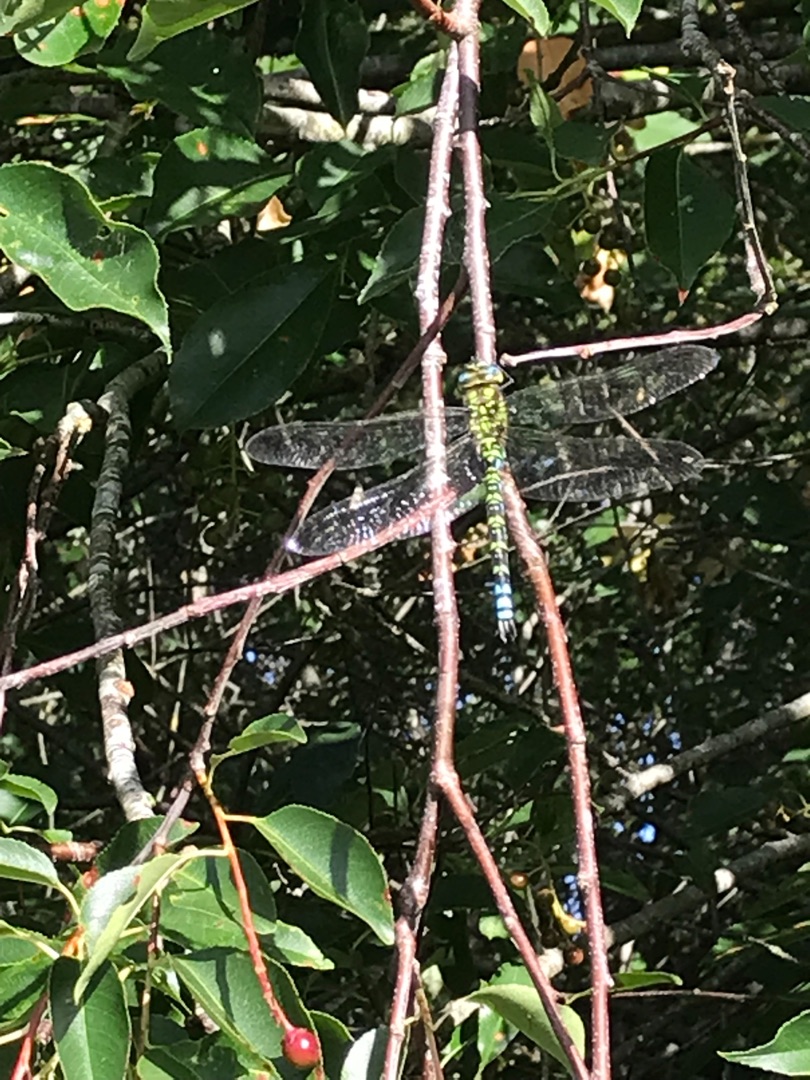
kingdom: Animalia
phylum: Arthropoda
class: Insecta
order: Odonata
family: Aeshnidae
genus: Aeshna
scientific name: Aeshna cyanea
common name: Blå mosaikguldsmed
